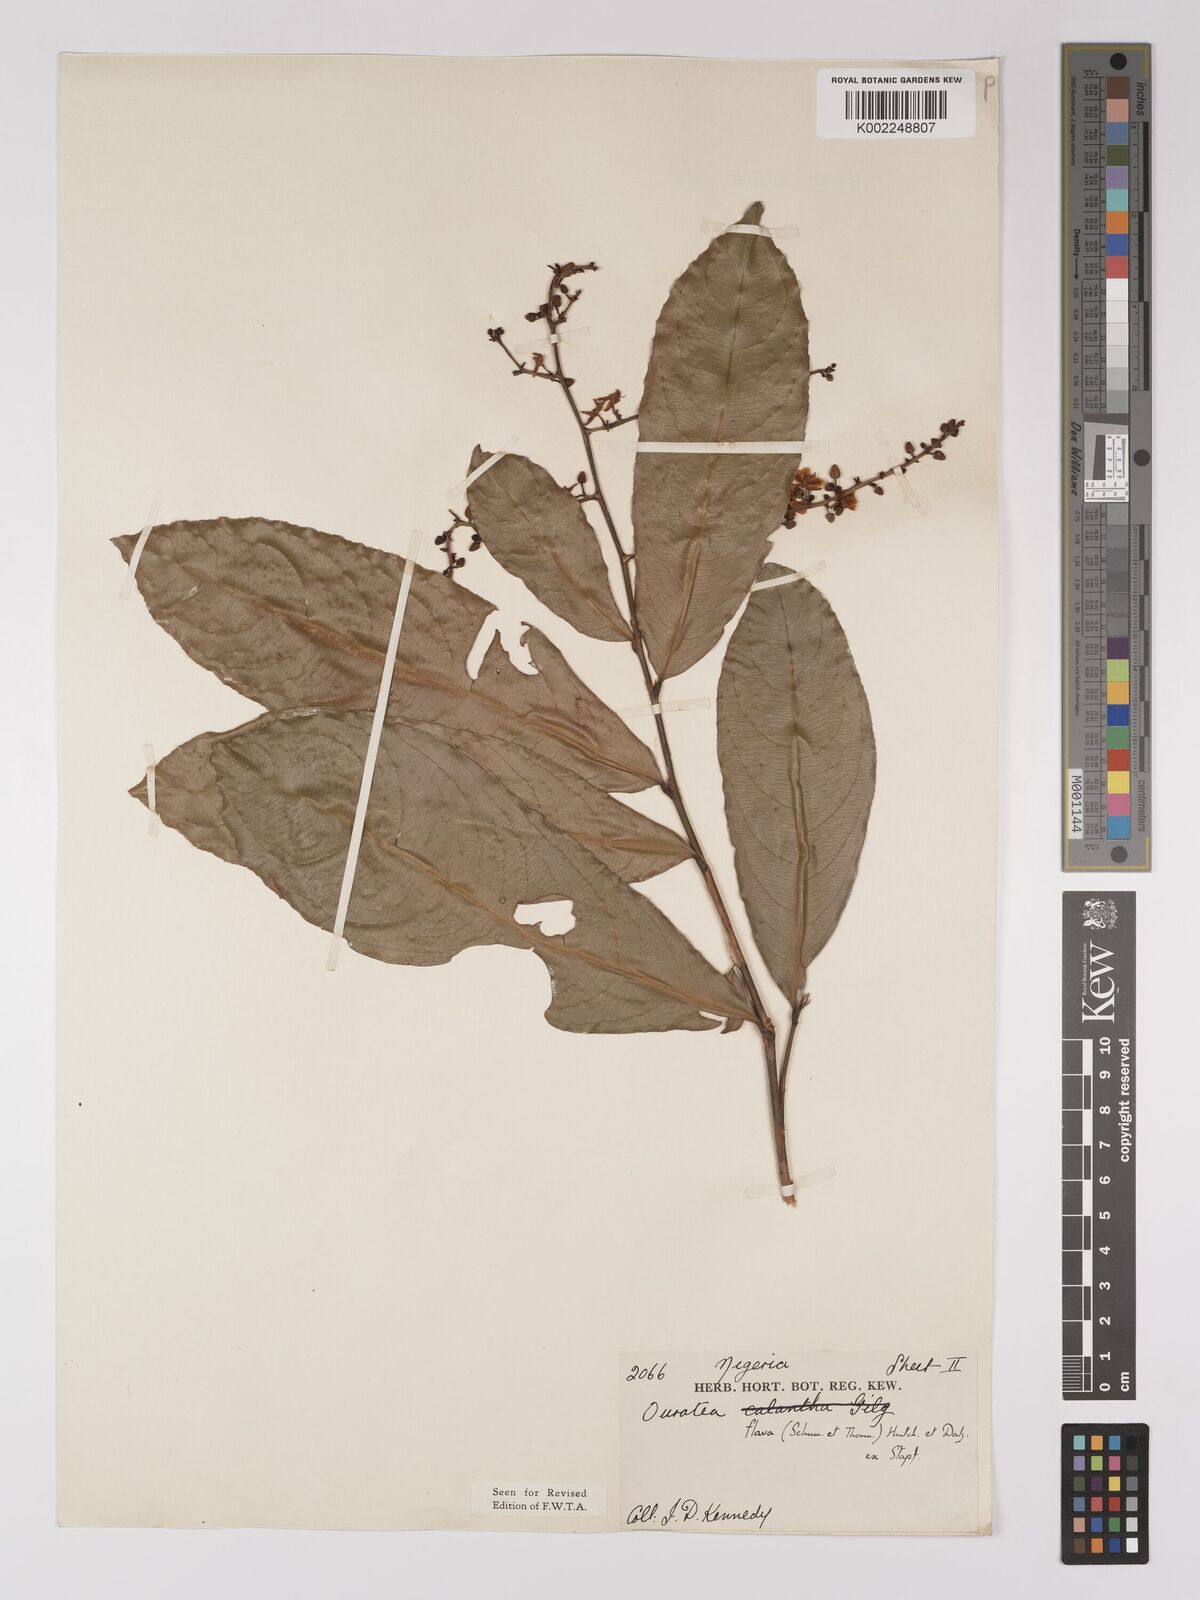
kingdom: Plantae
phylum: Tracheophyta
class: Magnoliopsida
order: Malpighiales
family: Ochnaceae
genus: Campylospermum
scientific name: Campylospermum flavum
